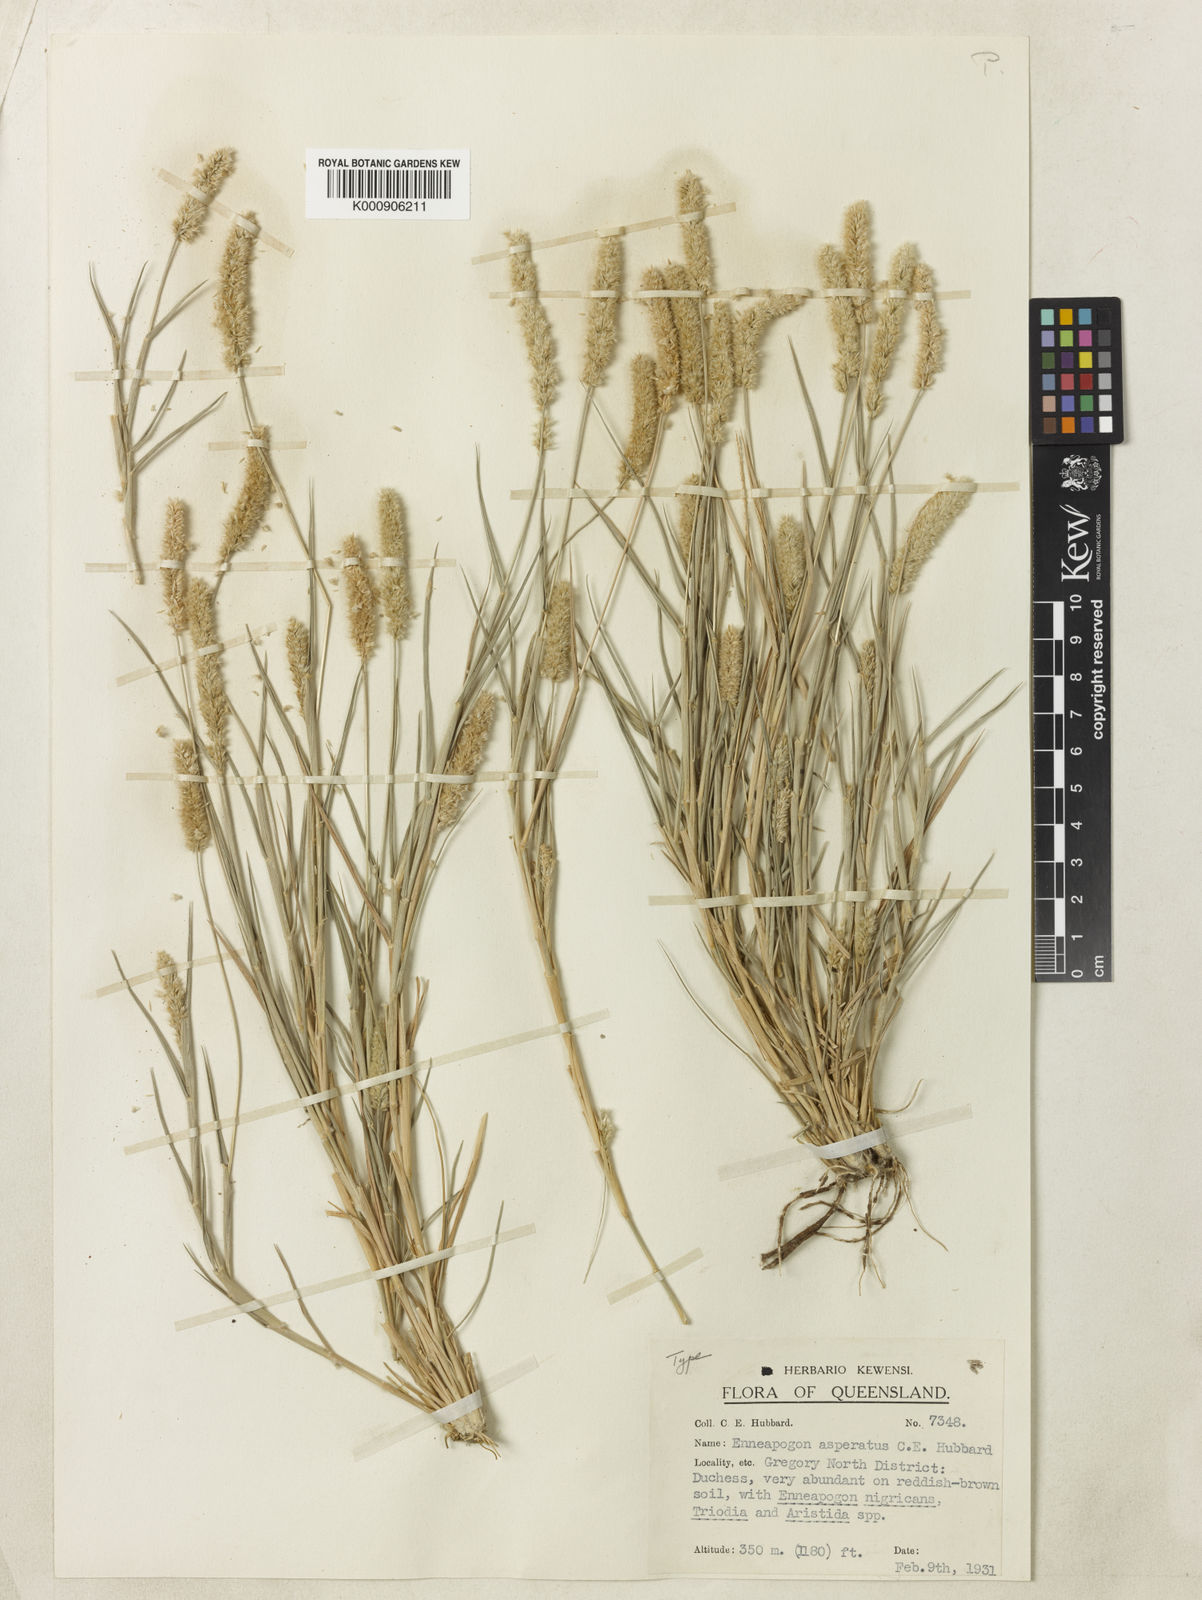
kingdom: Plantae
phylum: Tracheophyta
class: Liliopsida
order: Poales
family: Poaceae
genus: Enneapogon
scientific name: Enneapogon asperatus
